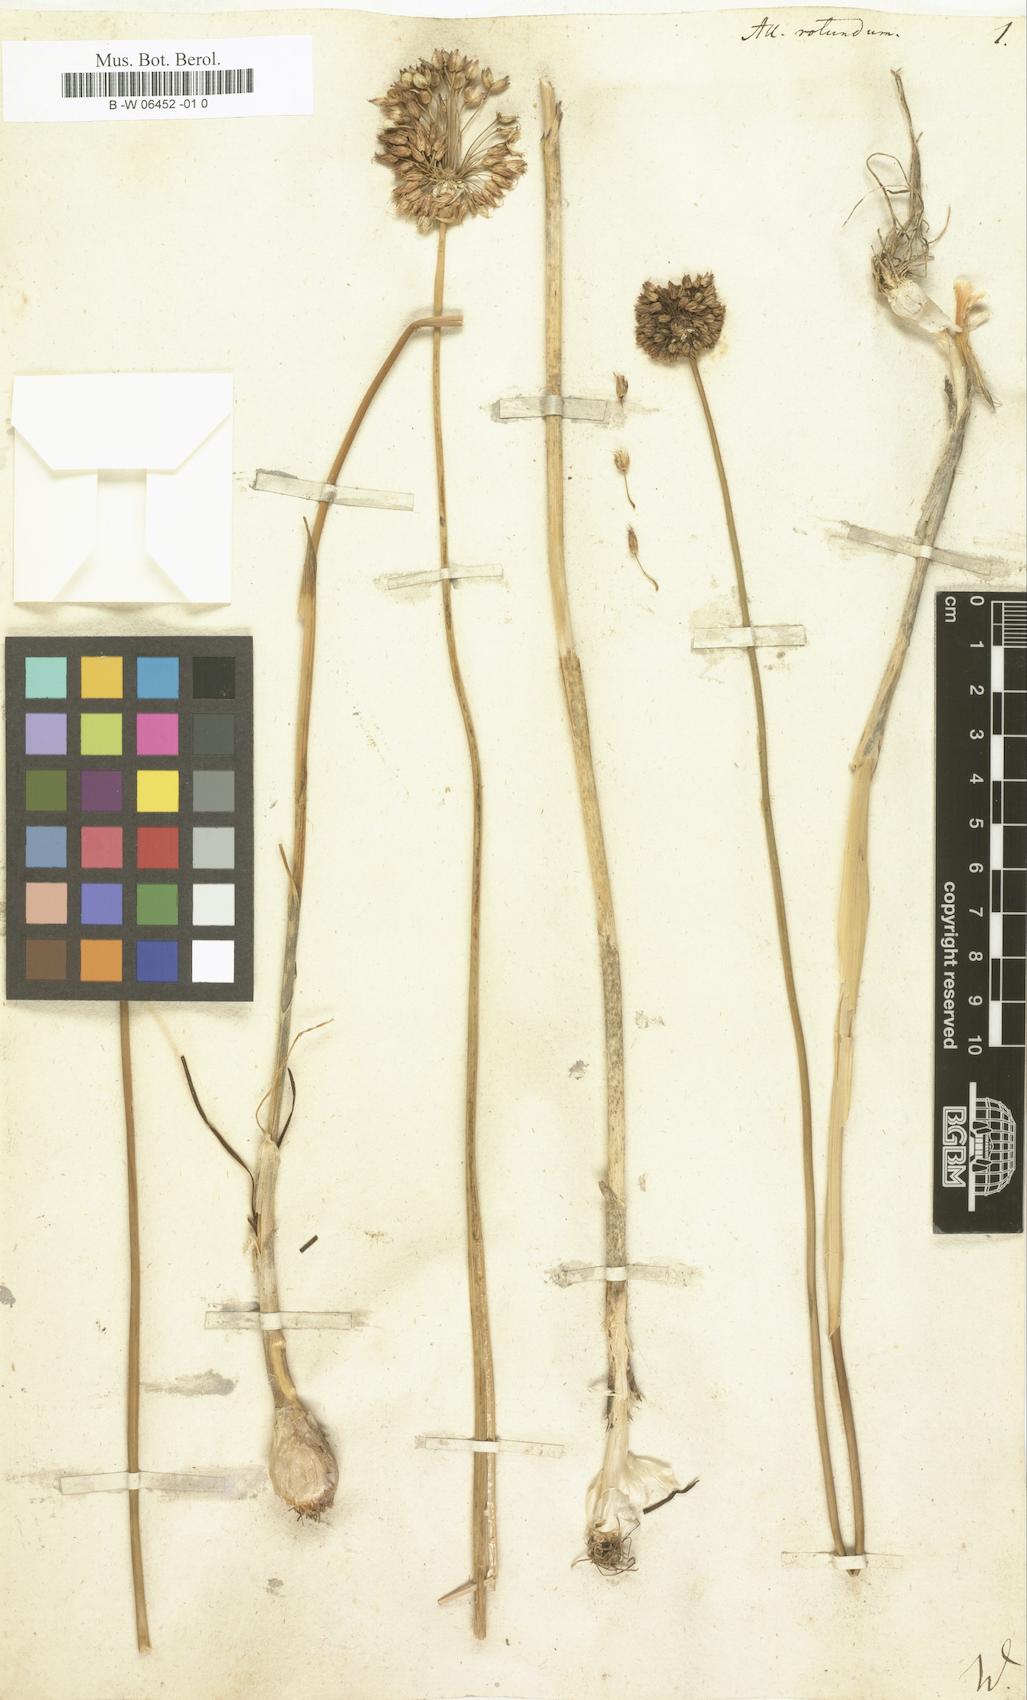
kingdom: Plantae
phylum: Tracheophyta
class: Liliopsida
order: Asparagales
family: Amaryllidaceae
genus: Allium
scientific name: Allium rotundum
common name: Sand leek
